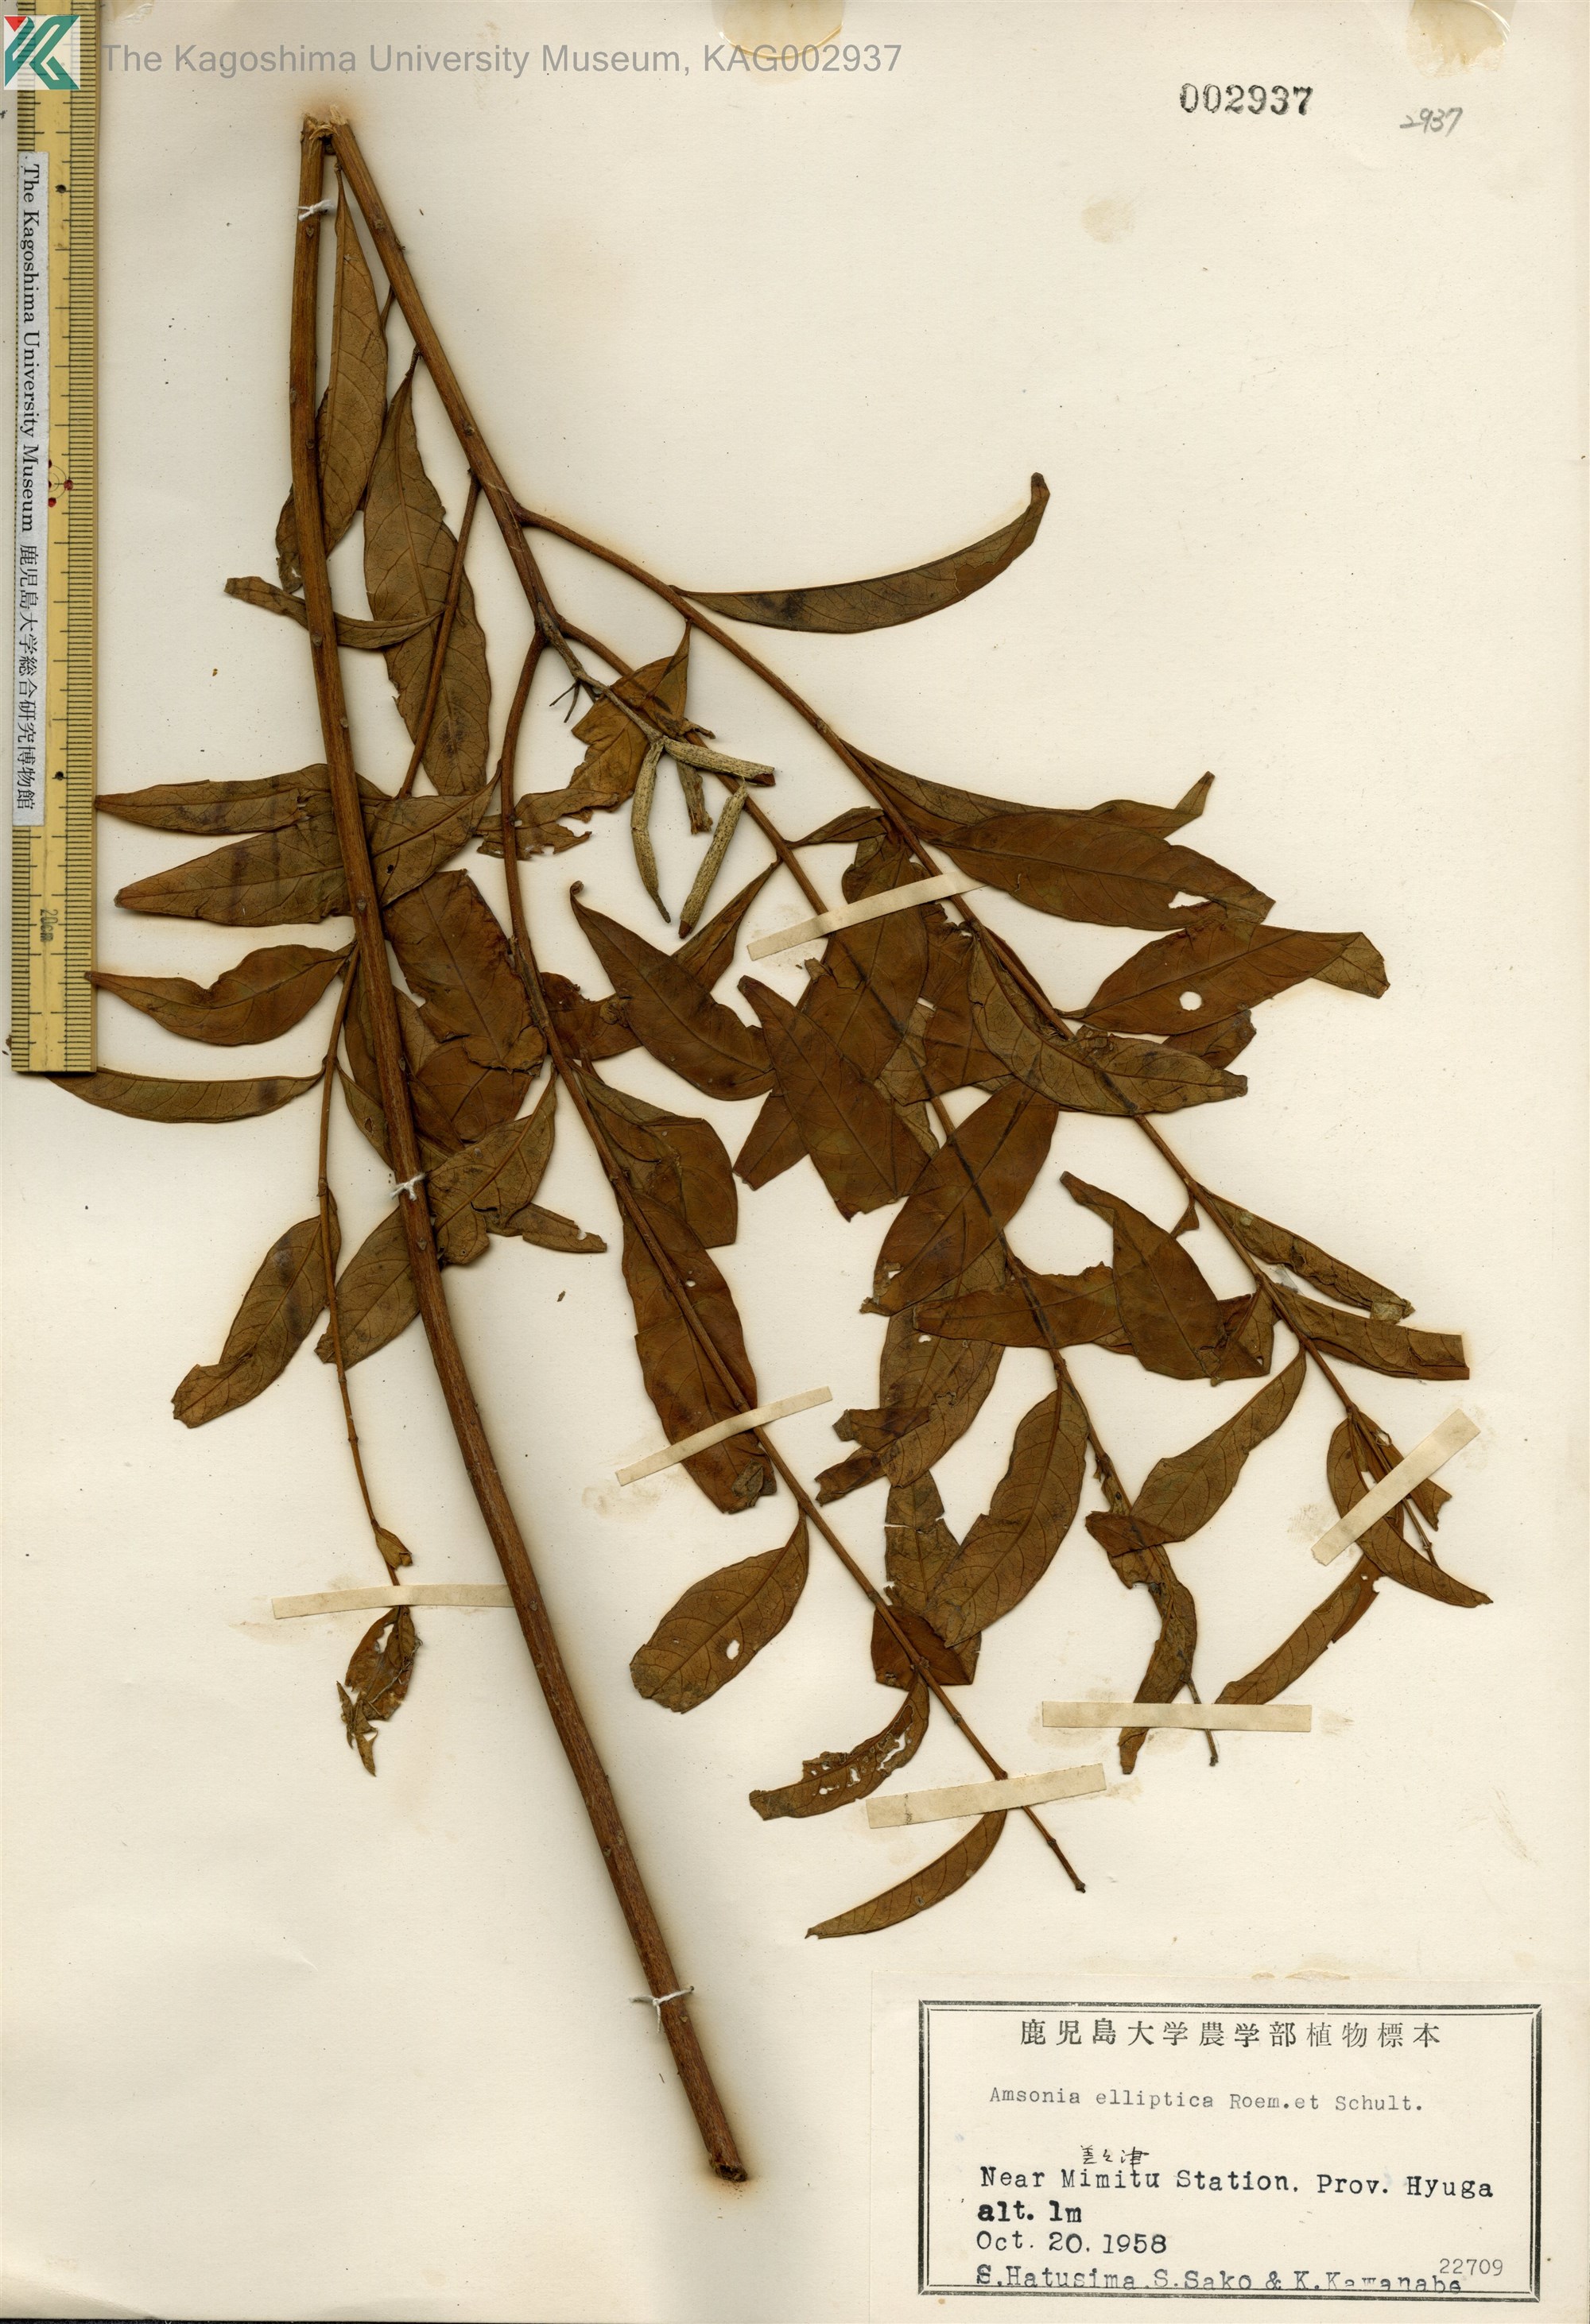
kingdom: Plantae
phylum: Tracheophyta
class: Magnoliopsida
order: Gentianales
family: Apocynaceae
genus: Amsonia
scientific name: Amsonia elliptica
